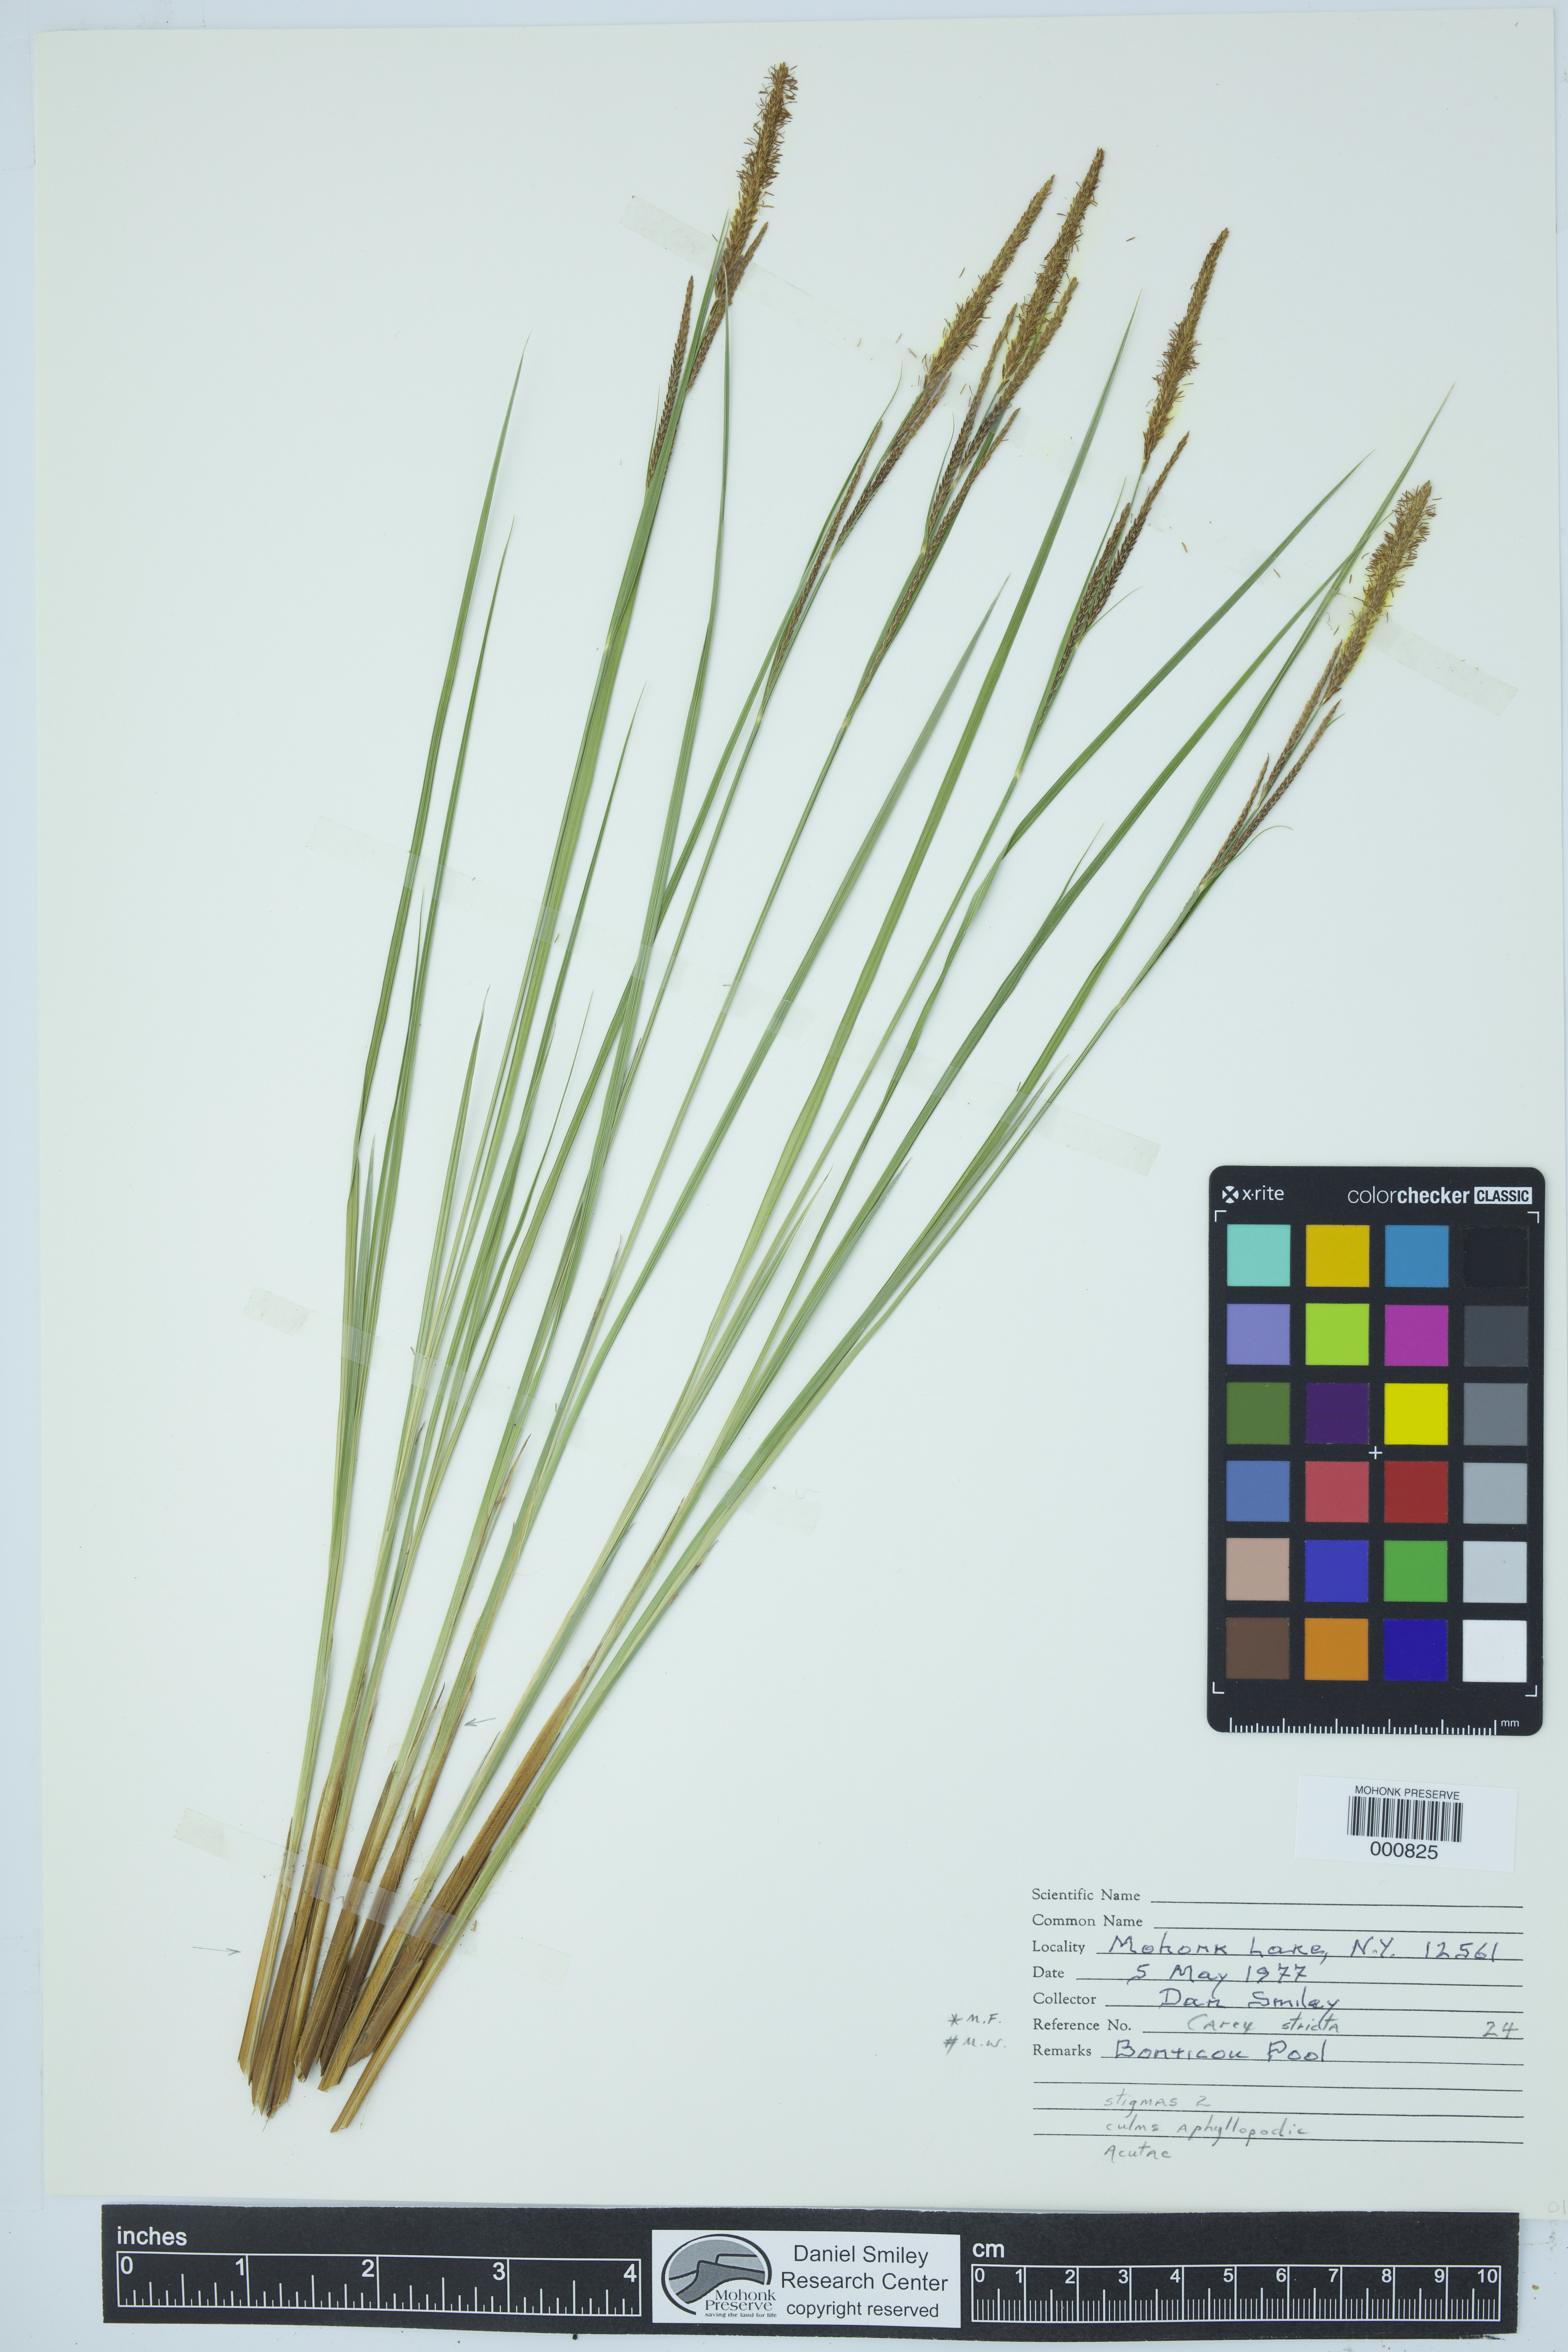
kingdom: Plantae
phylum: Tracheophyta
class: Liliopsida
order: Poales
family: Cyperaceae
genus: Carex
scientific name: Carex stricta
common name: Hummock sedge
